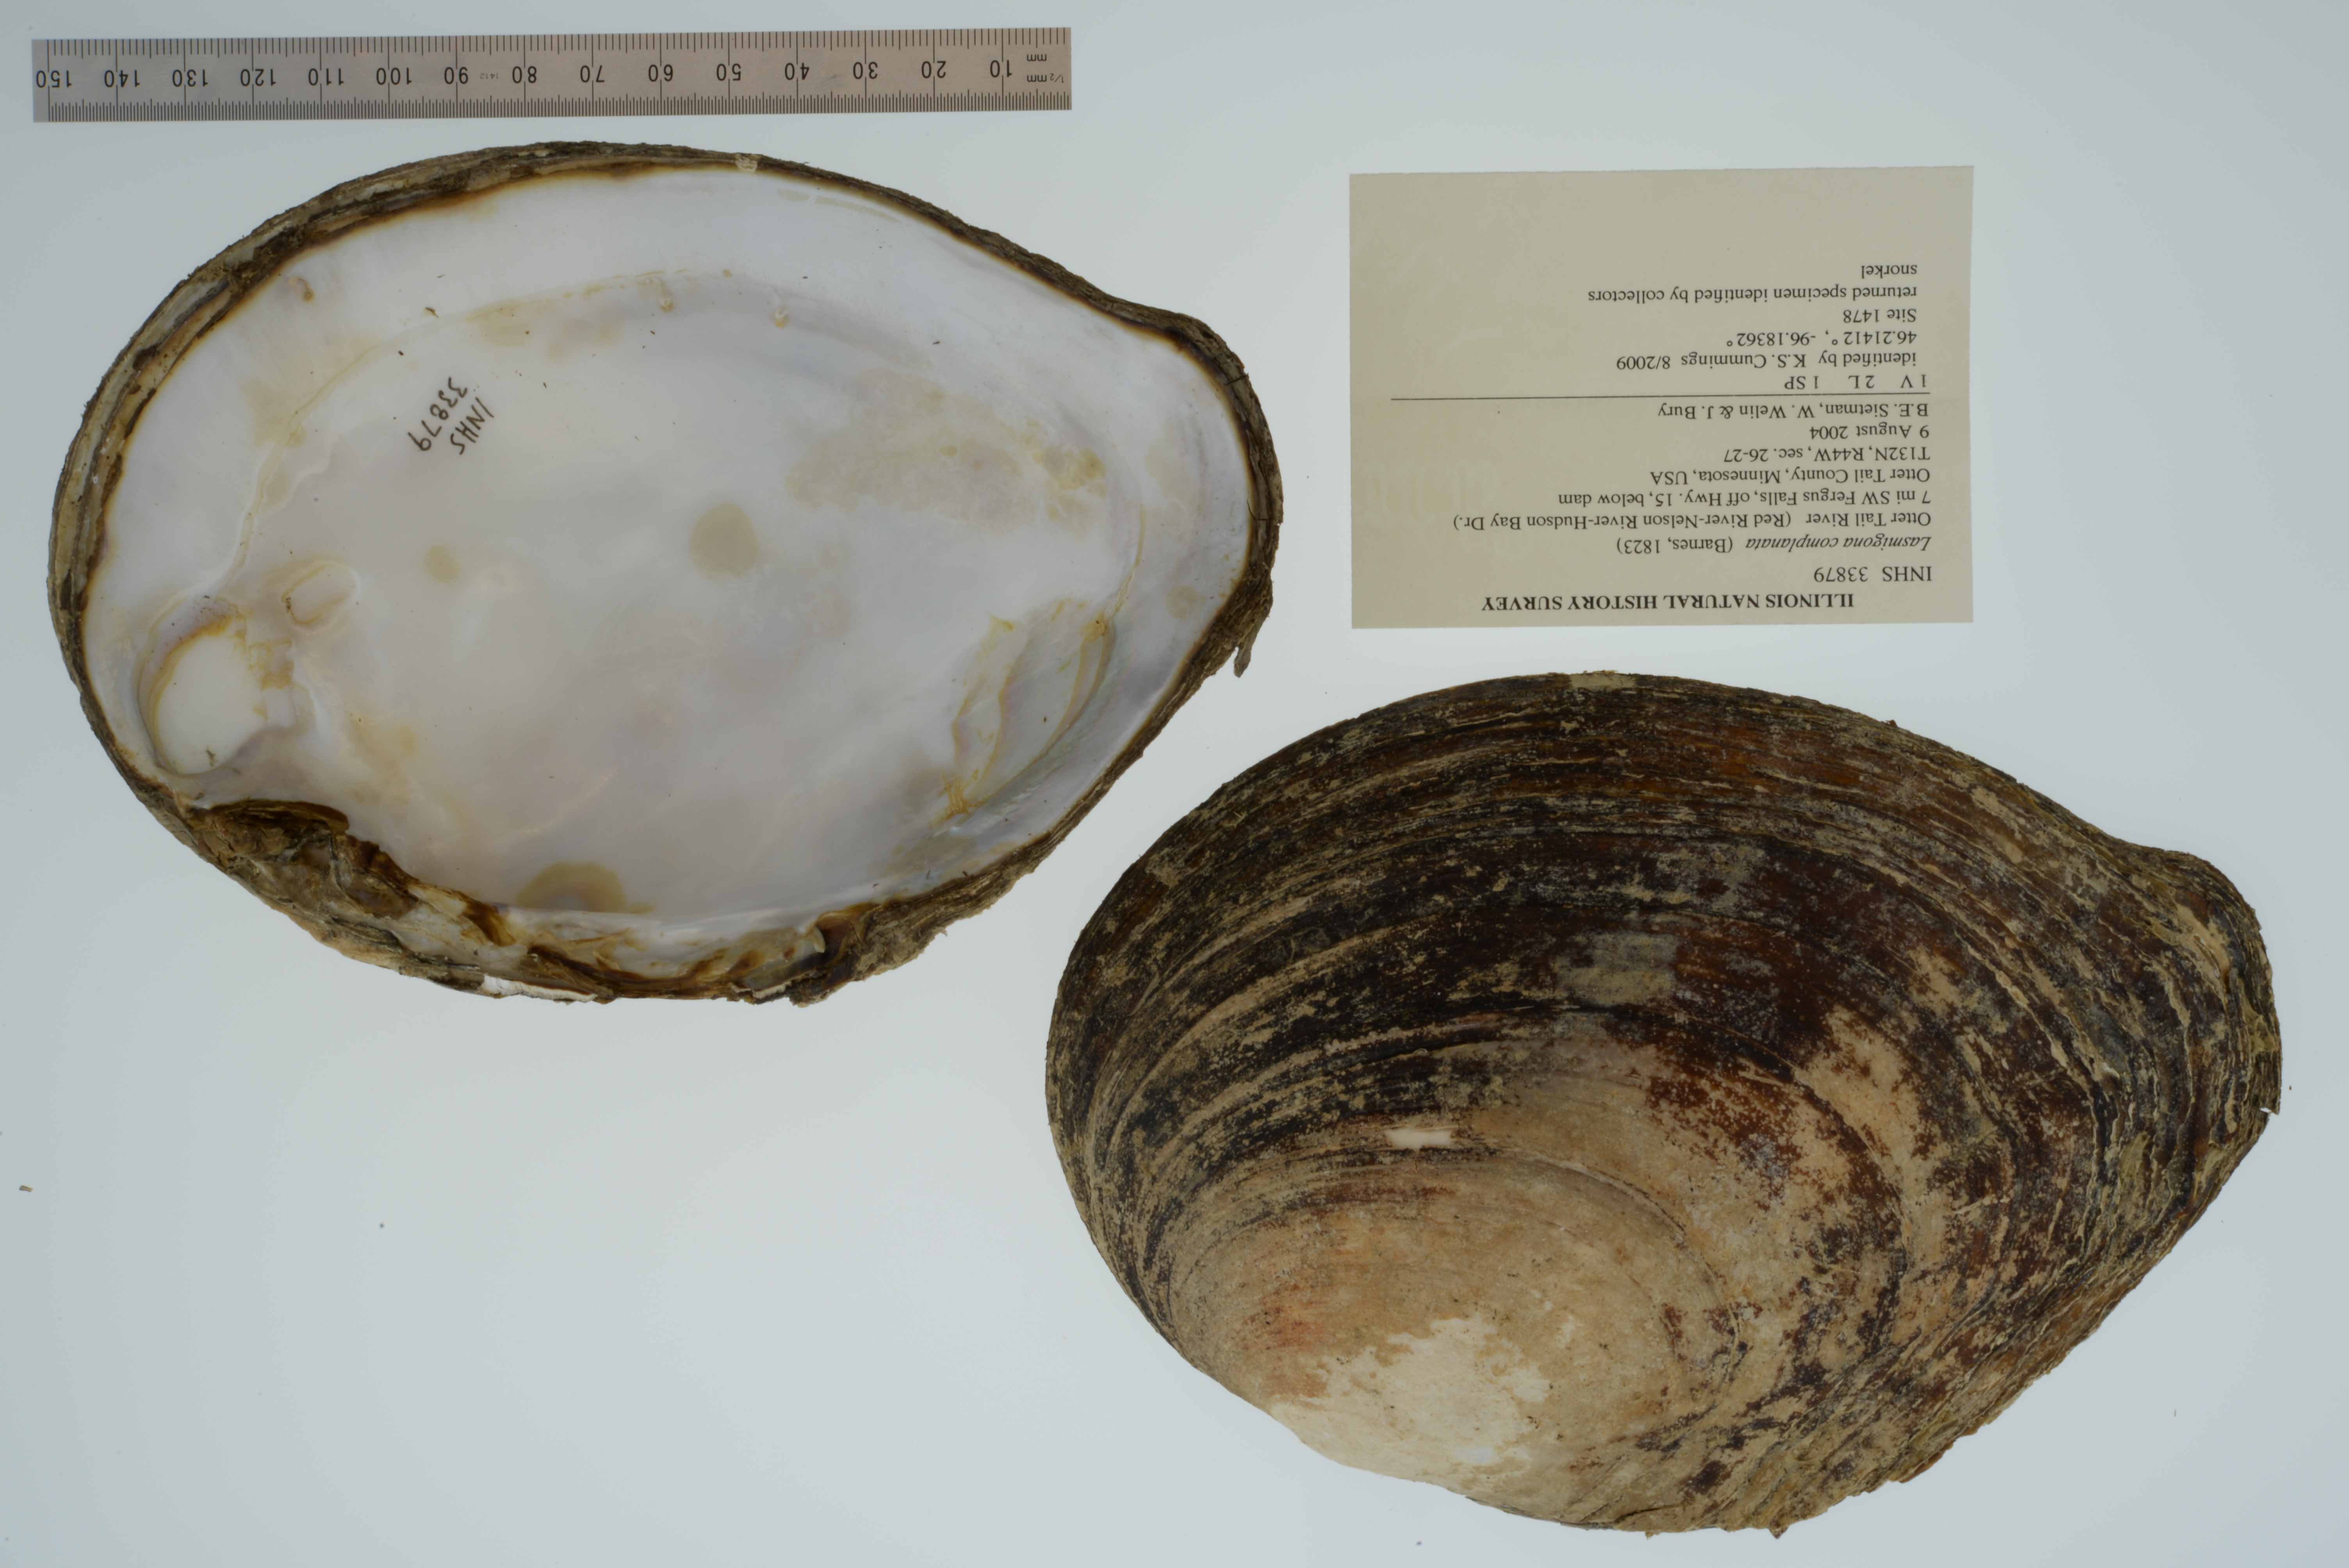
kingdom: Animalia
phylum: Mollusca
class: Bivalvia
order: Unionida
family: Unionidae
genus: Lasmigona
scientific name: Lasmigona complanata
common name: White heelsplitter
